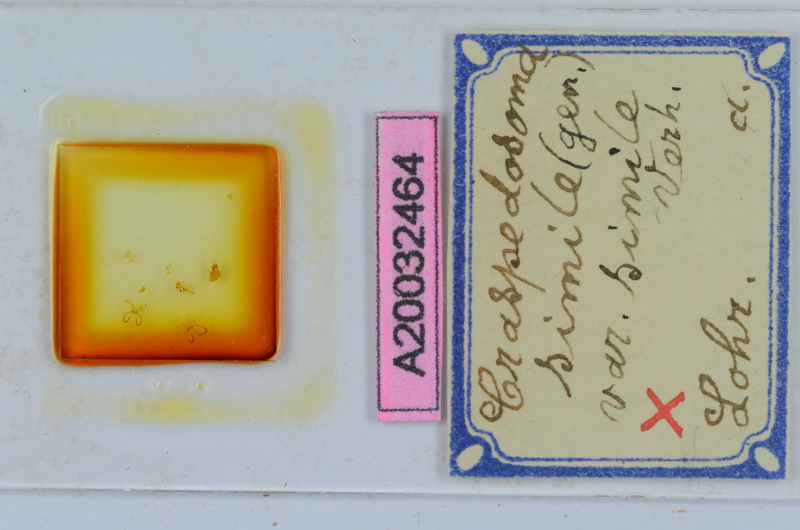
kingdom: Animalia
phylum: Arthropoda
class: Diplopoda
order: Chordeumatida
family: Craspedosomatidae
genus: Craspedosoma
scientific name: Craspedosoma rawlinsii
